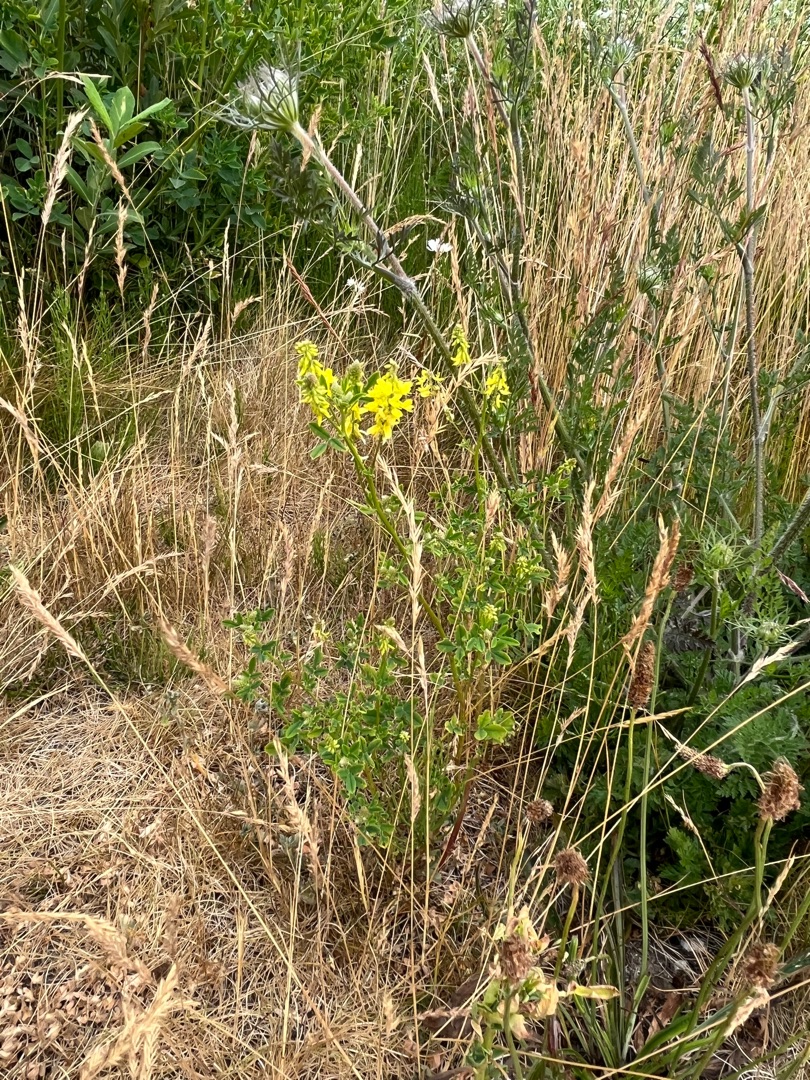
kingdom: Plantae
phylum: Tracheophyta
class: Magnoliopsida
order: Fabales
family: Fabaceae
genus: Melilotus
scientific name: Melilotus officinalis
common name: Mark-stenkløver
